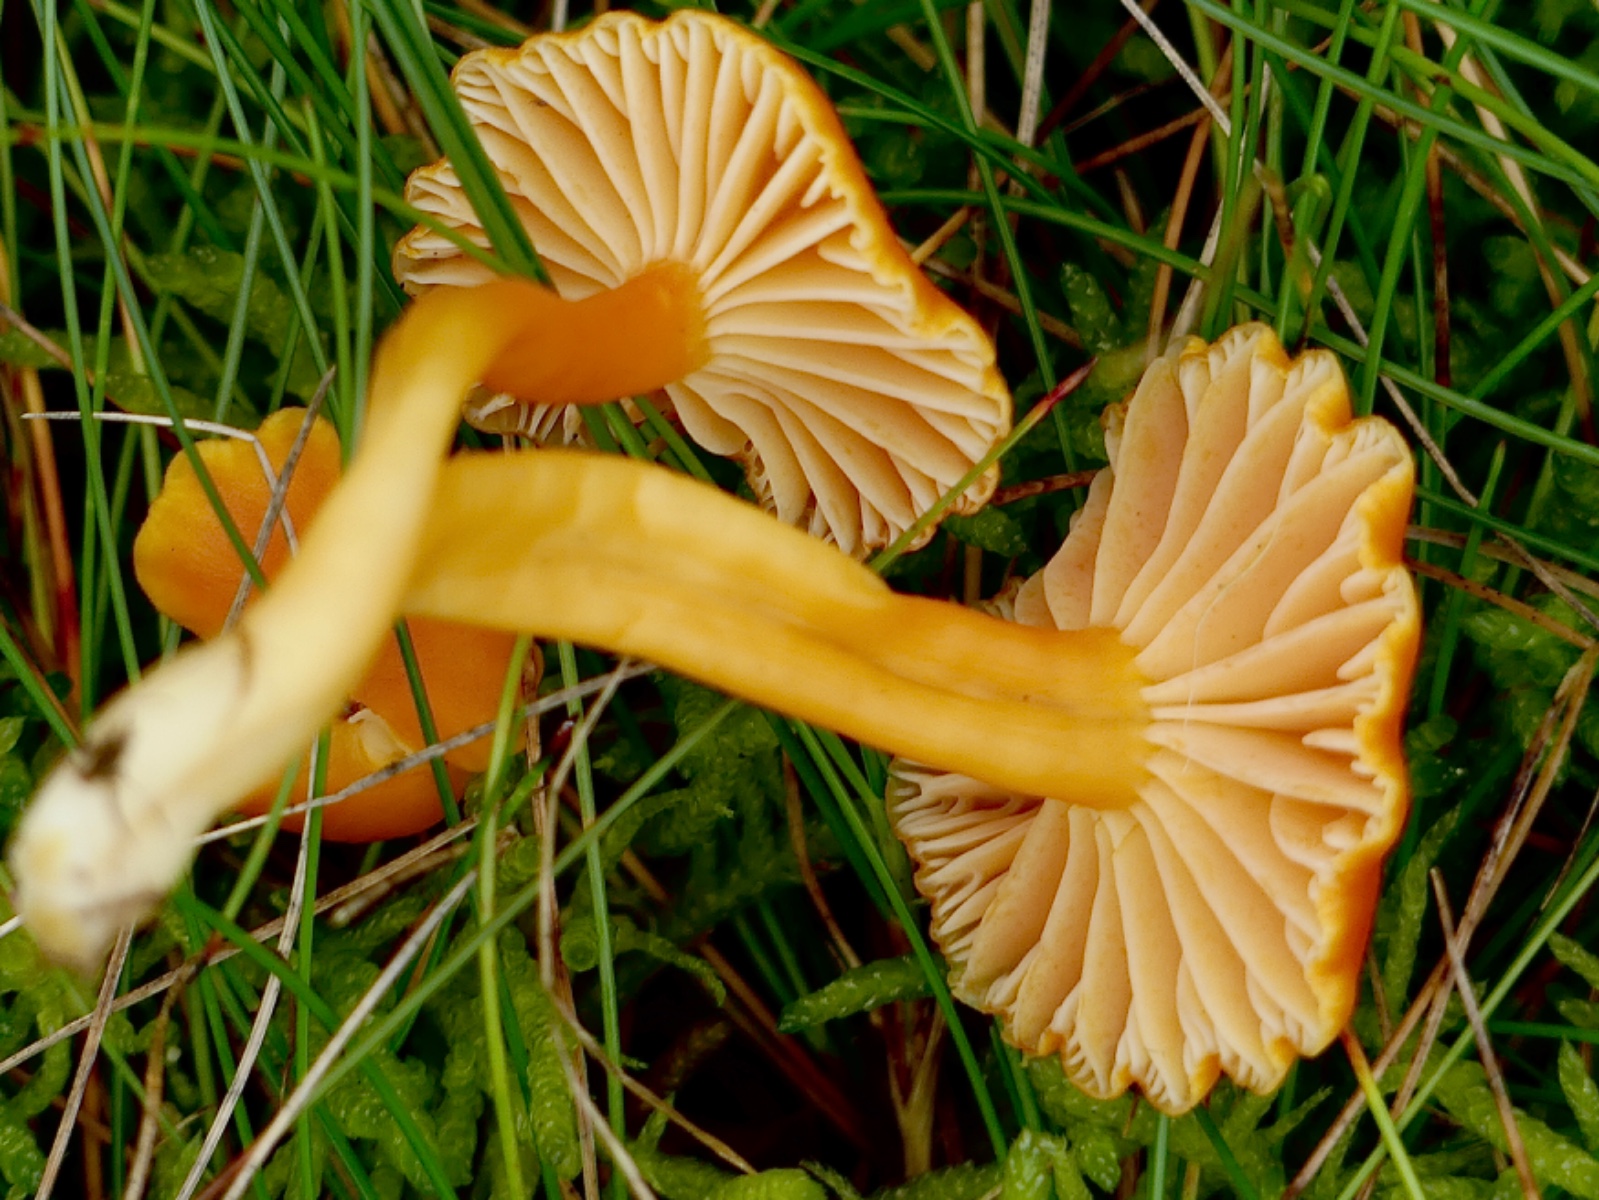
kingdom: Fungi
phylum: Basidiomycota
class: Agaricomycetes
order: Agaricales
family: Hygrophoraceae
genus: Hygrocybe
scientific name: Hygrocybe reidii
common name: honning-vokshat
